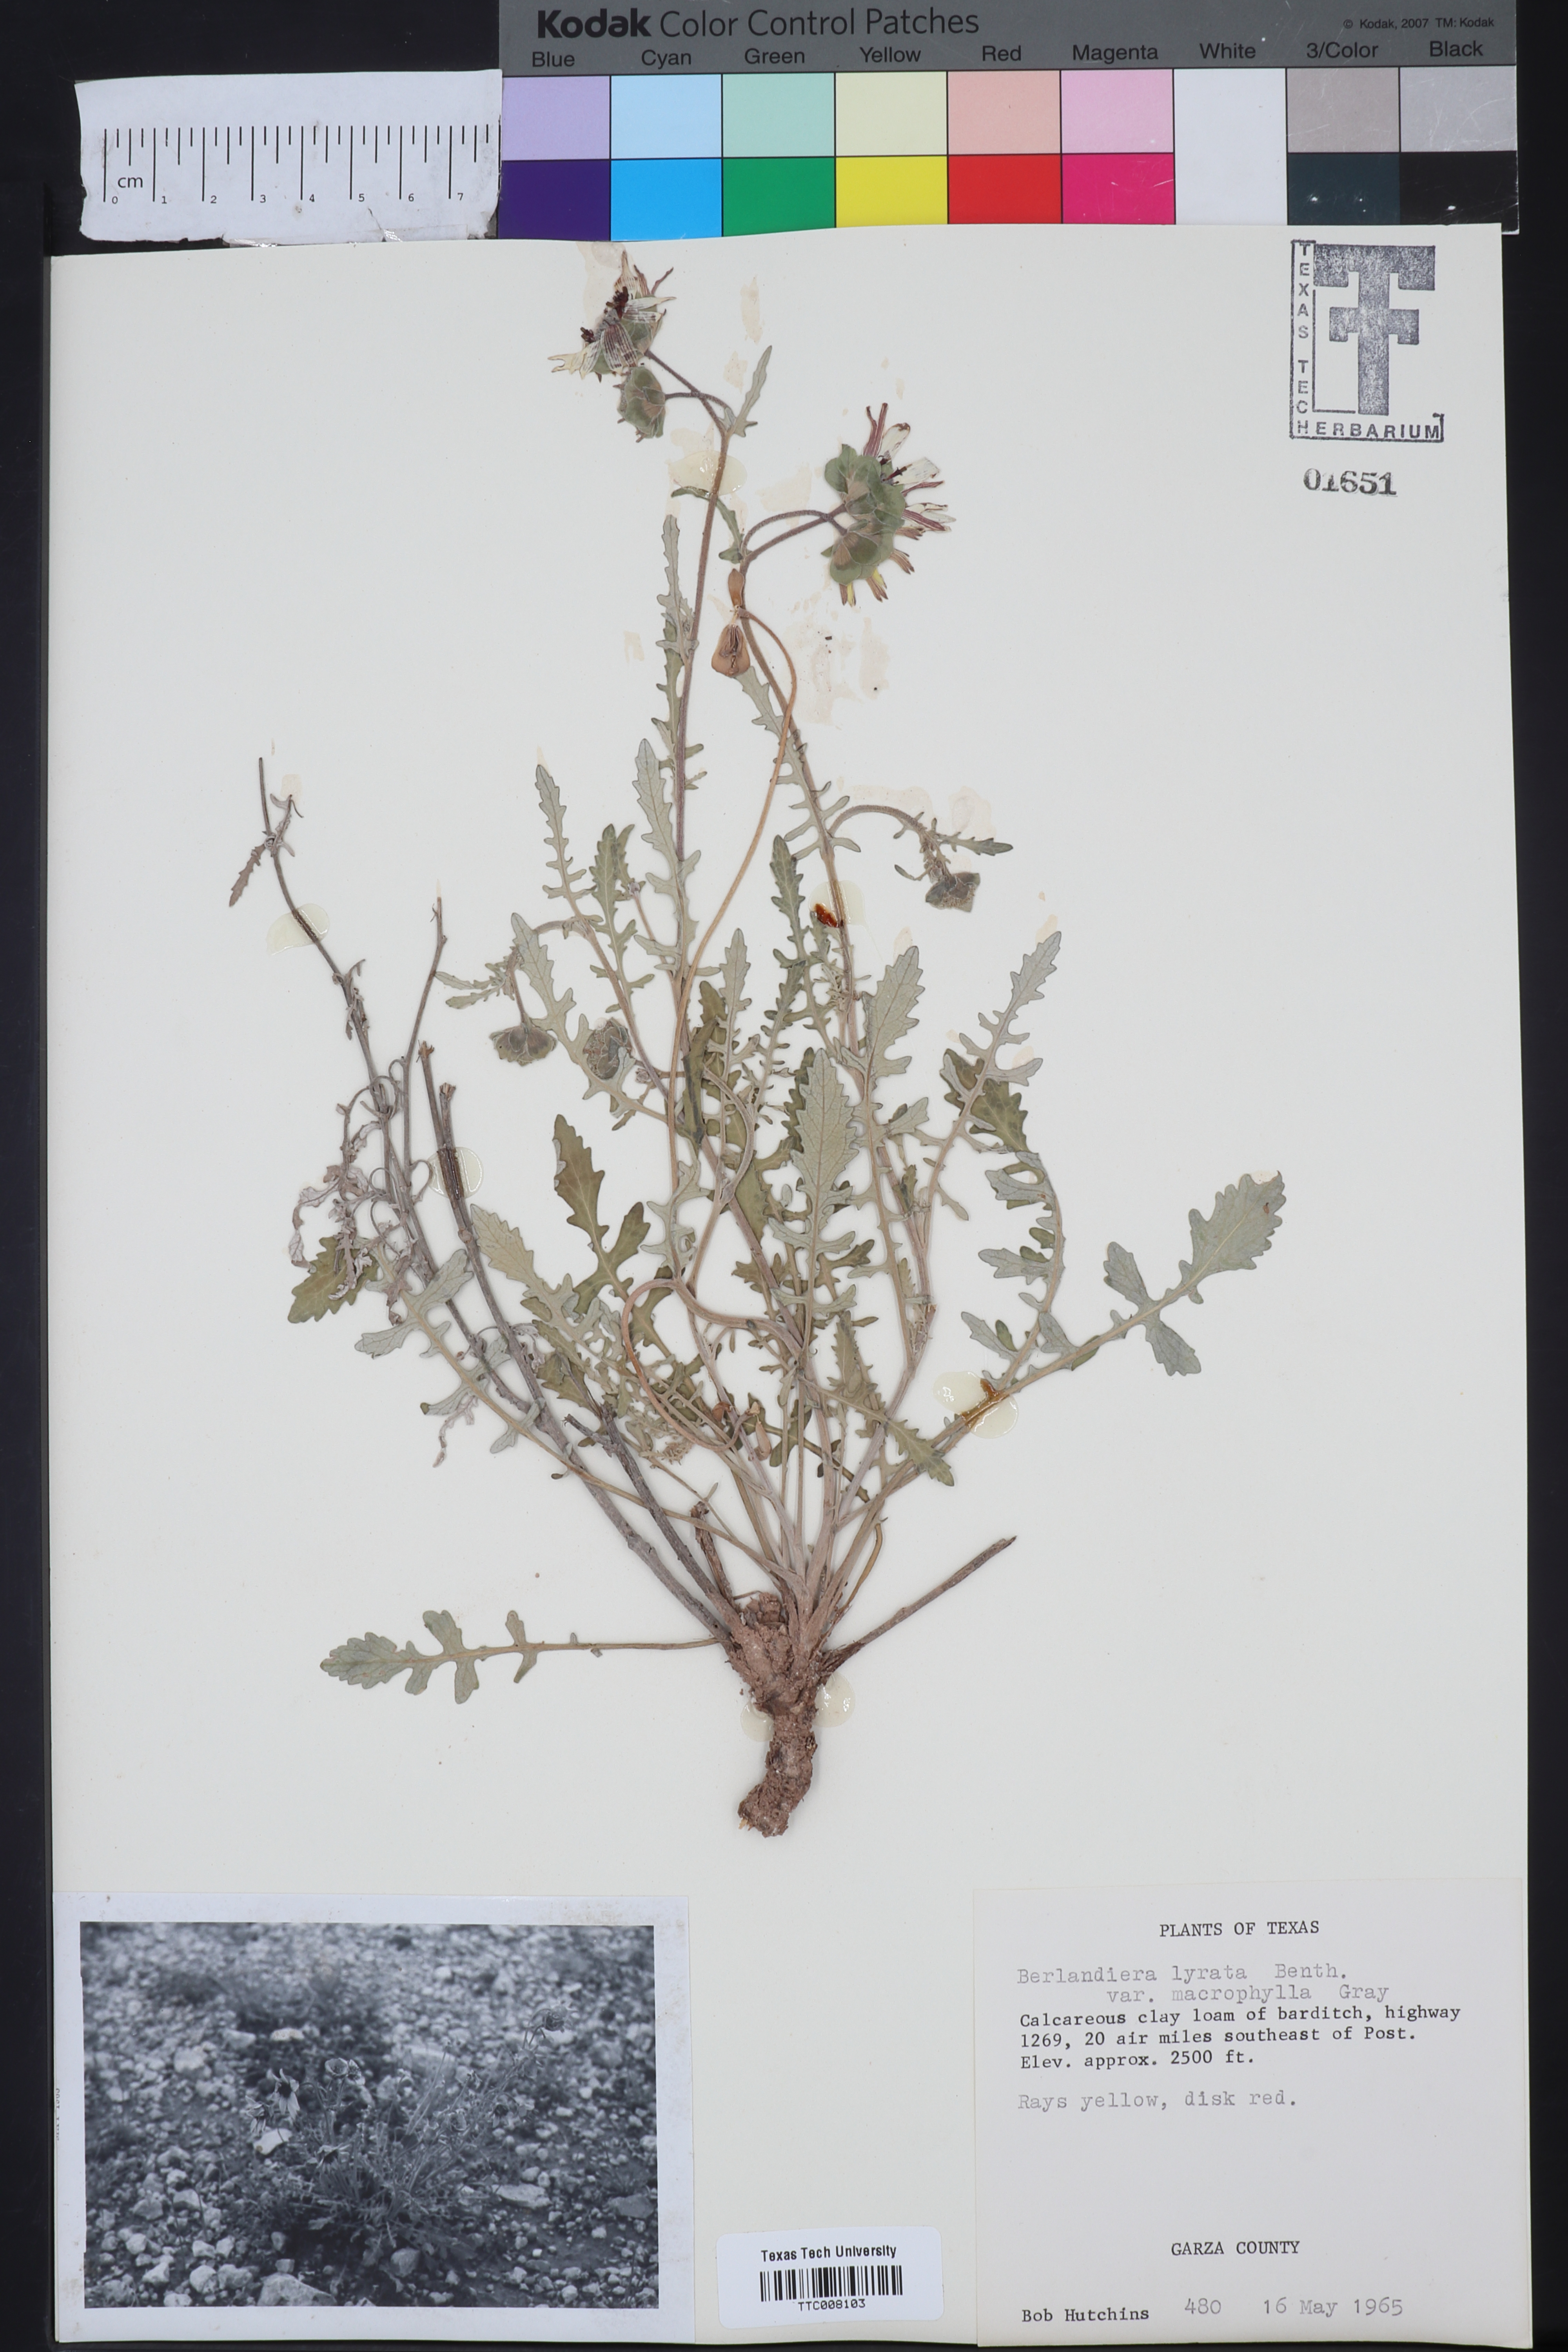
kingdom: Plantae
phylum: Tracheophyta
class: Magnoliopsida
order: Asterales
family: Asteraceae
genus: Berlandiera
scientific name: Berlandiera macrophylla
